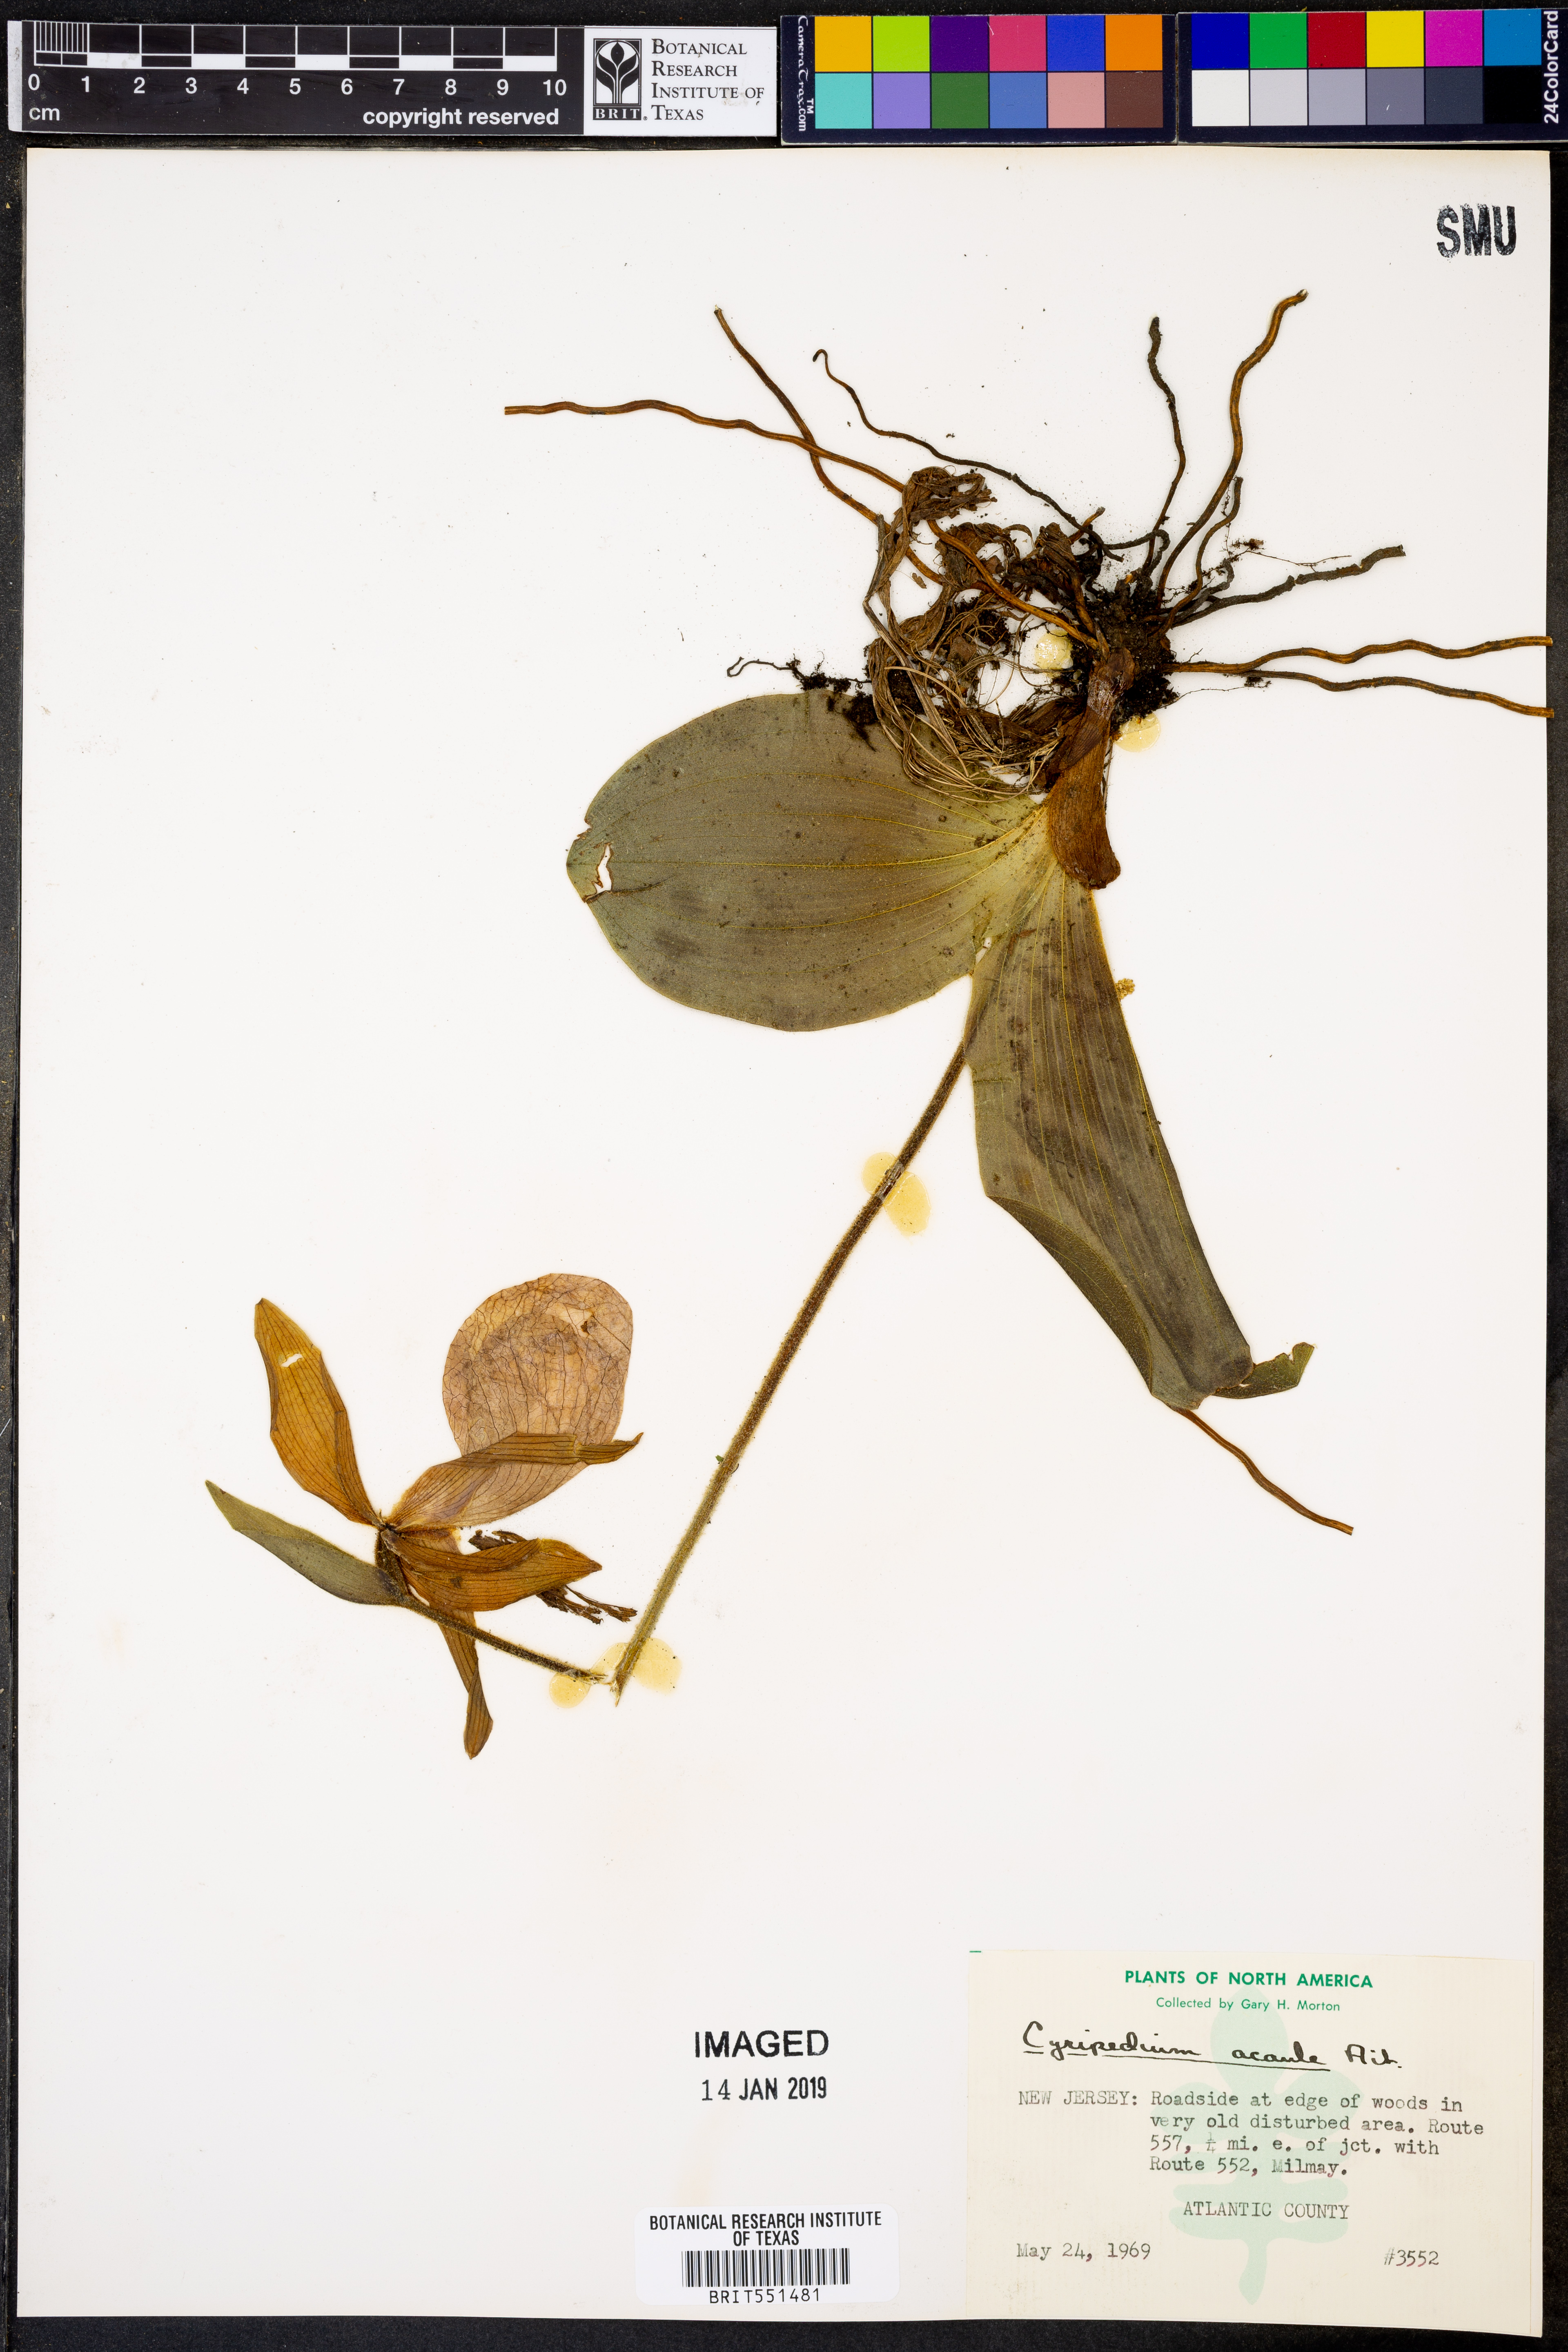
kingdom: Plantae
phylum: Tracheophyta
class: Liliopsida
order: Asparagales
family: Orchidaceae
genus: Cypripedium
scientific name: Cypripedium acaule
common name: Pink lady's-slipper
